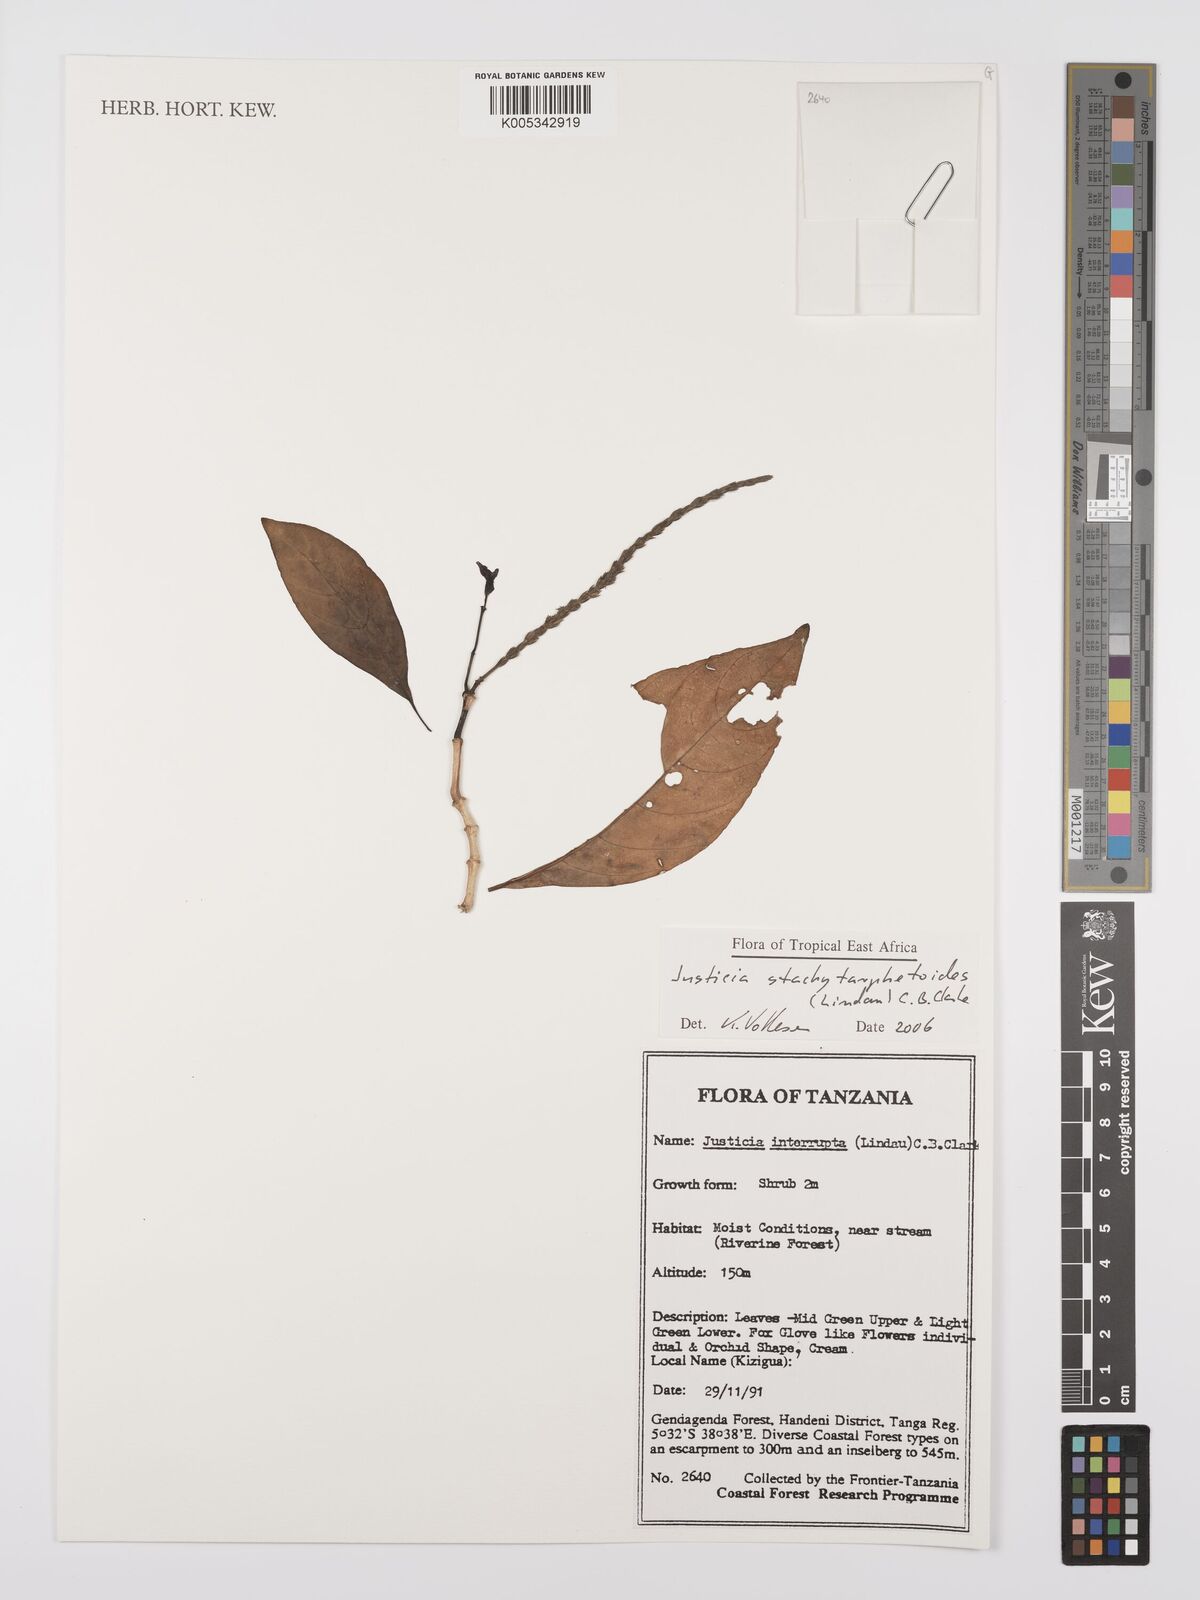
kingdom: Plantae
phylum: Tracheophyta
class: Magnoliopsida
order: Lamiales
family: Acanthaceae
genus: Justicia
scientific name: Justicia stachytarphetoides
